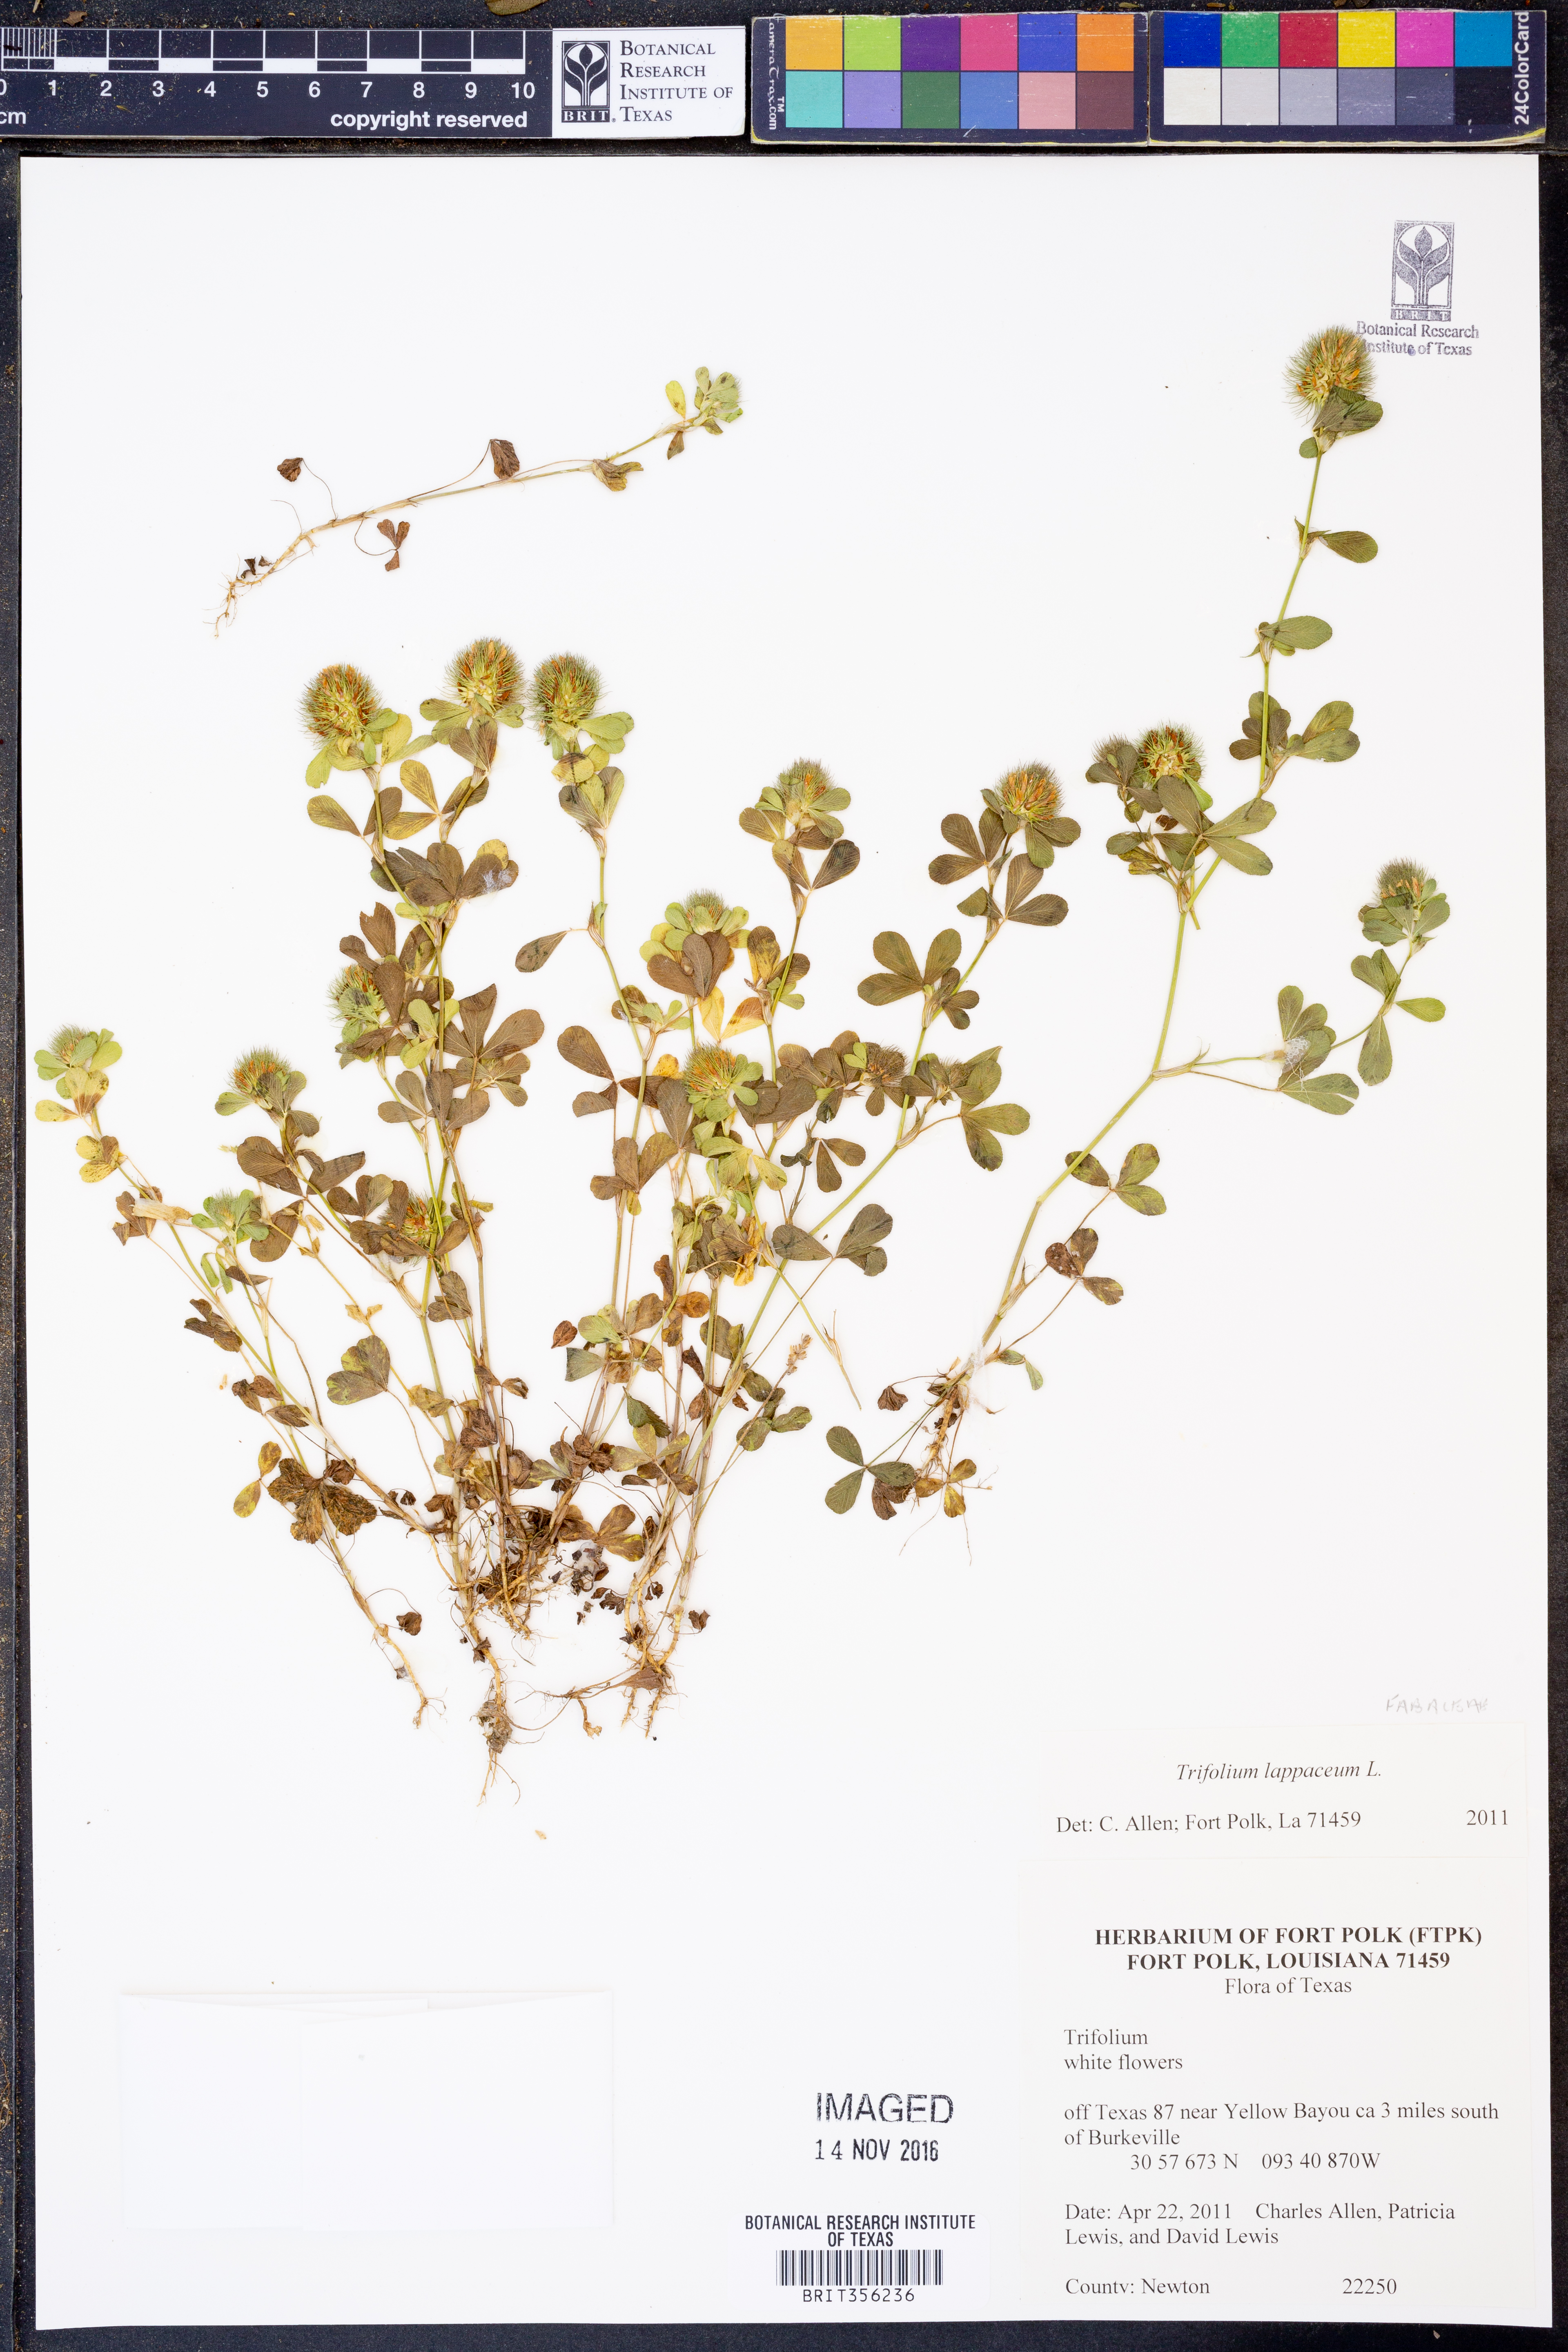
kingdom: Plantae
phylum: Tracheophyta
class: Magnoliopsida
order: Fabales
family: Fabaceae
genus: Trifolium
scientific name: Trifolium lappaceum
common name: Bur clover
